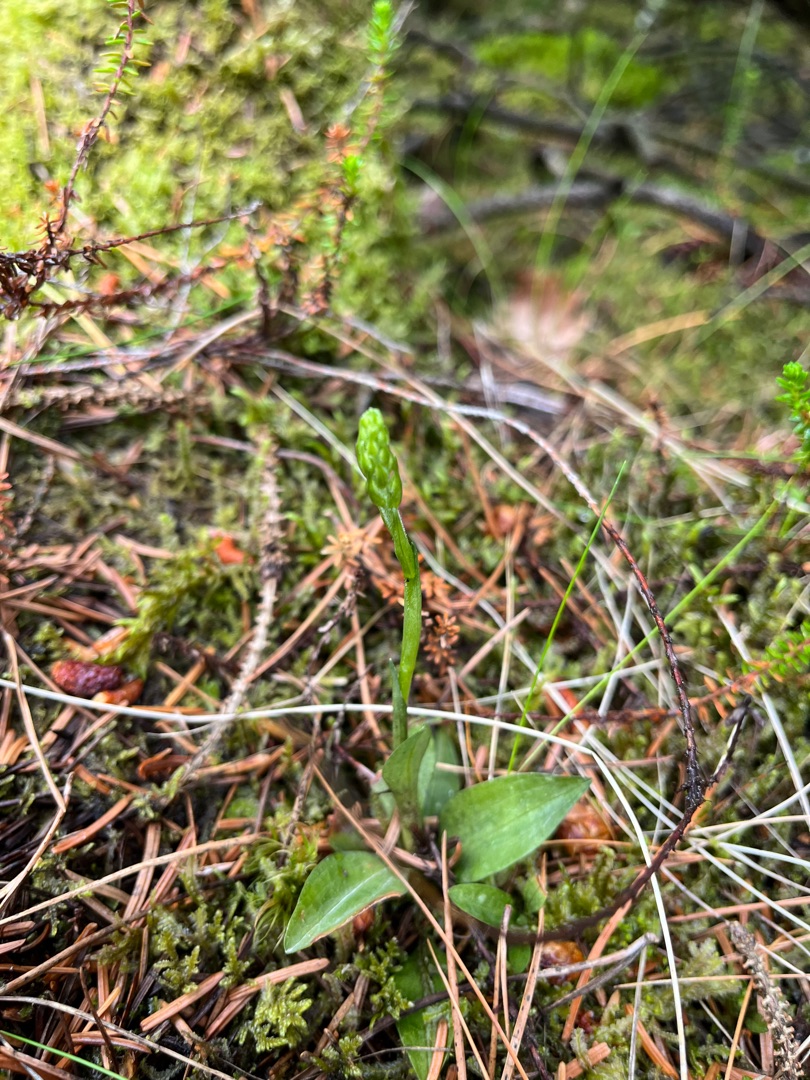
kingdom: Plantae
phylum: Tracheophyta
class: Liliopsida
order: Asparagales
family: Orchidaceae
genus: Goodyera
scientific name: Goodyera repens
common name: Knærod
